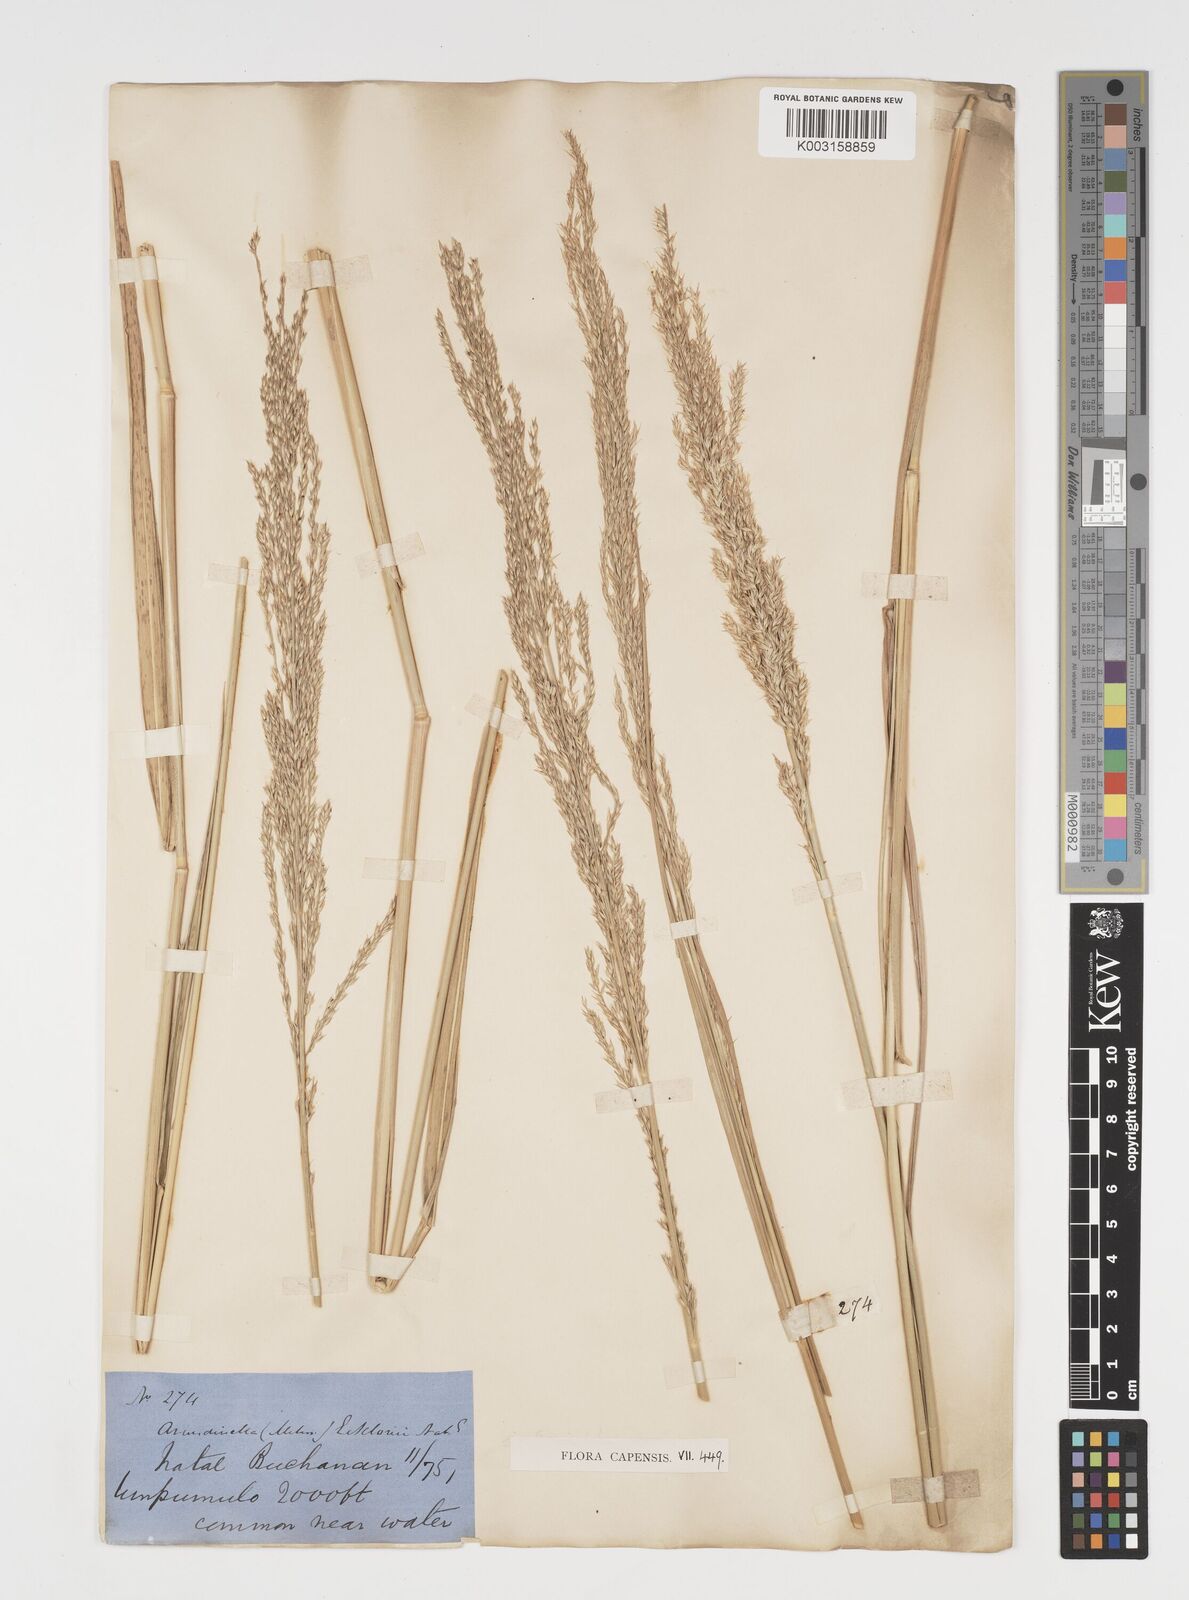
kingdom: Plantae
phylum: Tracheophyta
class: Liliopsida
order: Poales
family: Poaceae
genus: Arundinella
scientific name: Arundinella nepalensis
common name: Reed grass
